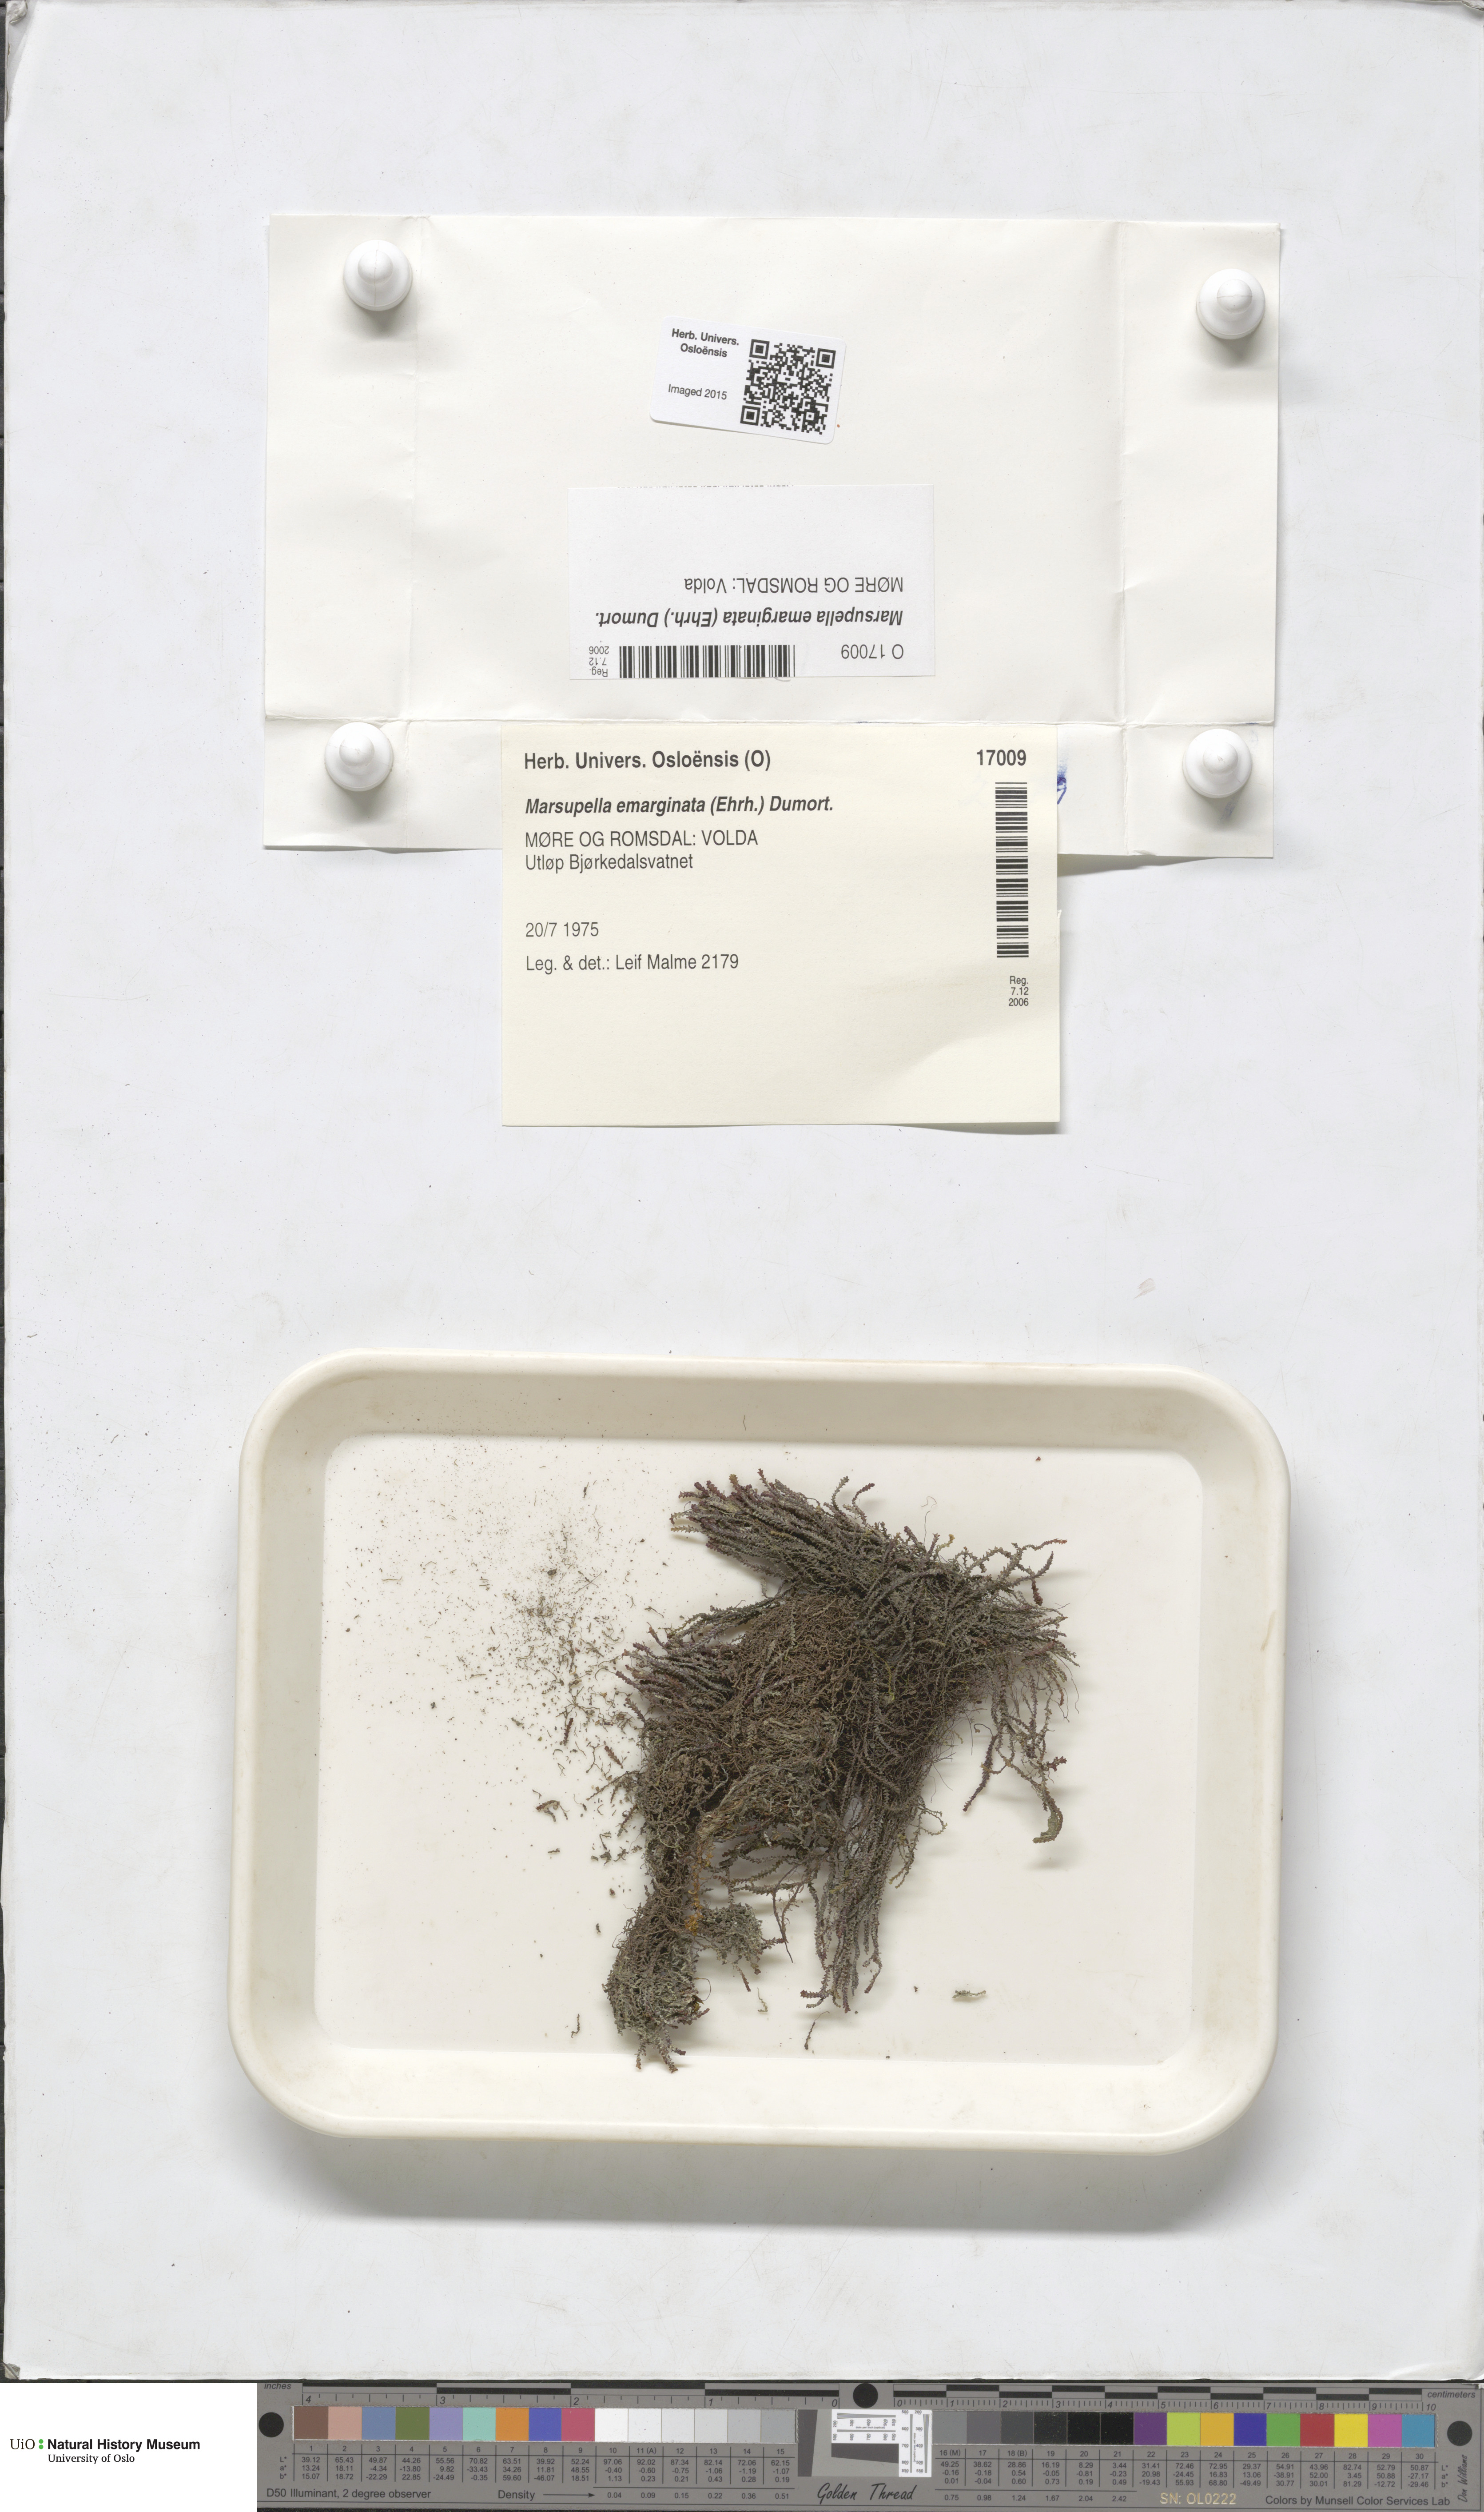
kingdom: Plantae
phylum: Marchantiophyta
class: Jungermanniopsida
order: Jungermanniales
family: Gymnomitriaceae
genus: Marsupella
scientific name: Marsupella emarginata
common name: Notched rustwort
